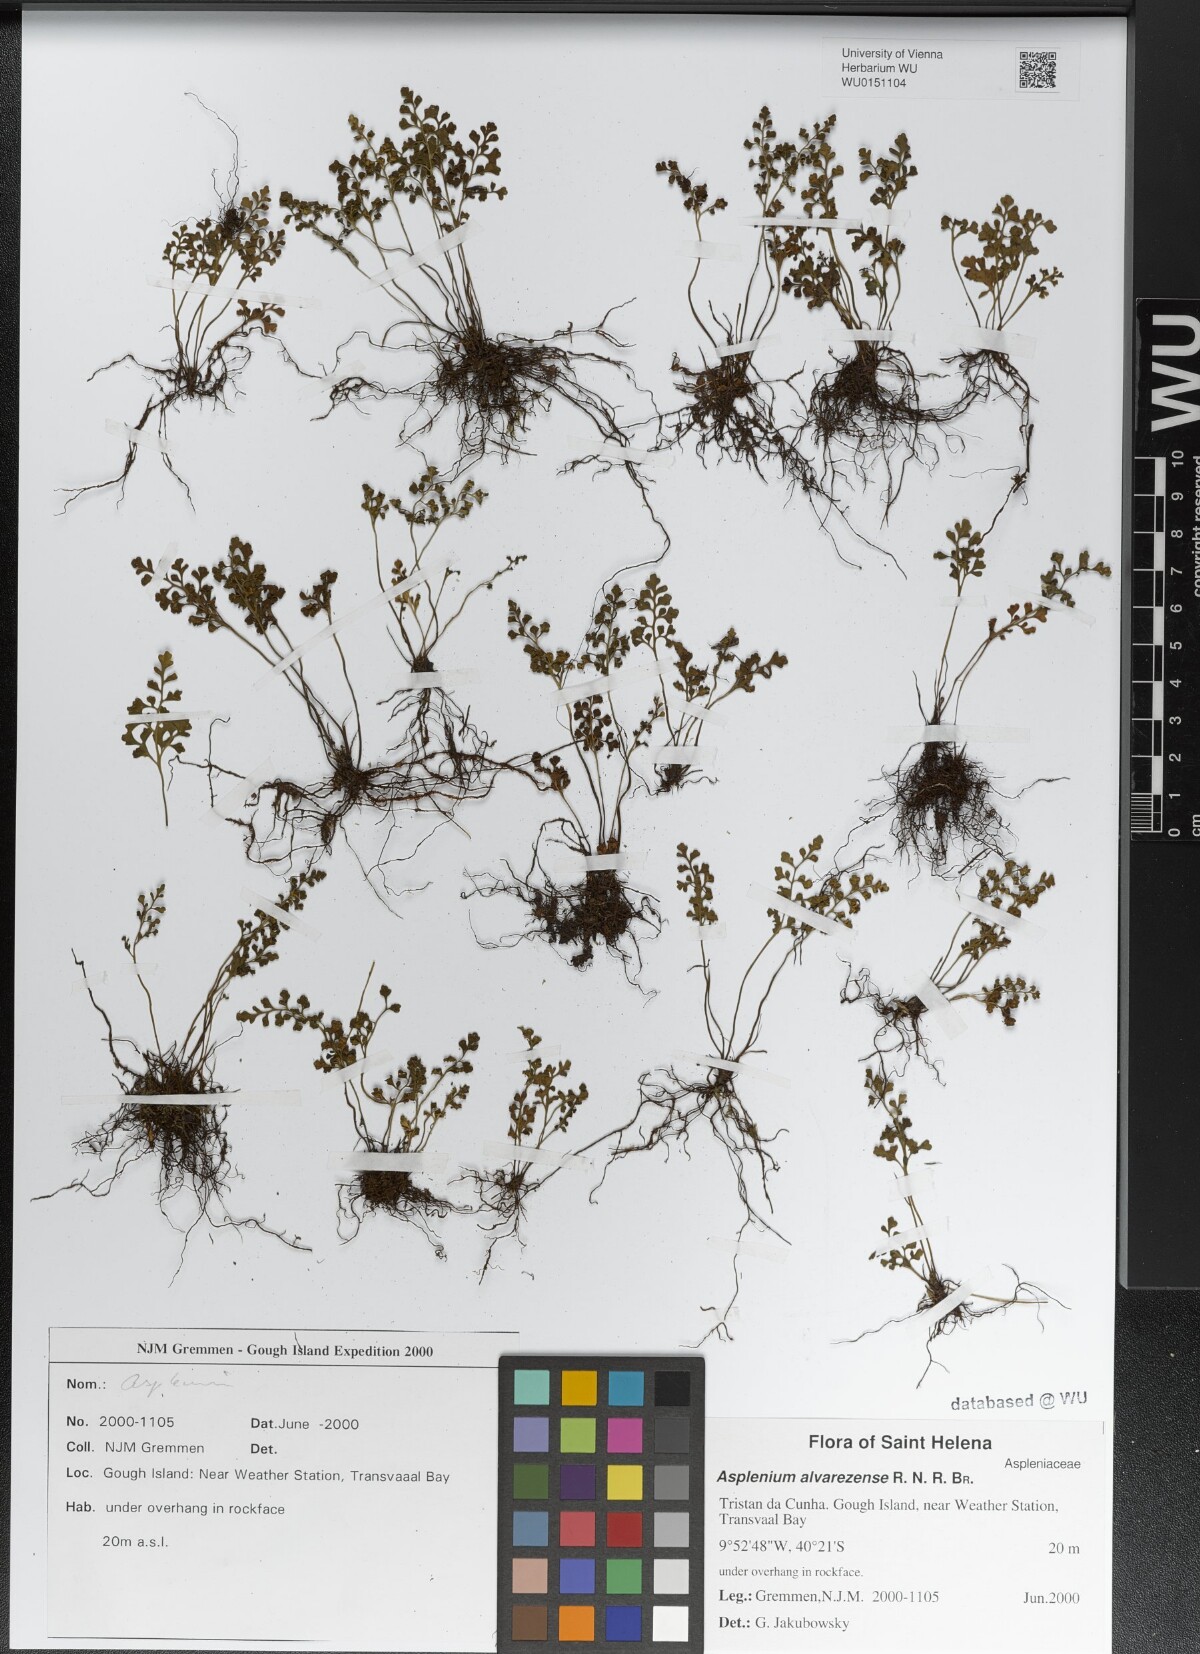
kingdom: Plantae
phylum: Tracheophyta
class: Polypodiopsida
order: Polypodiales
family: Aspleniaceae
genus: Asplenium
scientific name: Asplenium alvarezense
